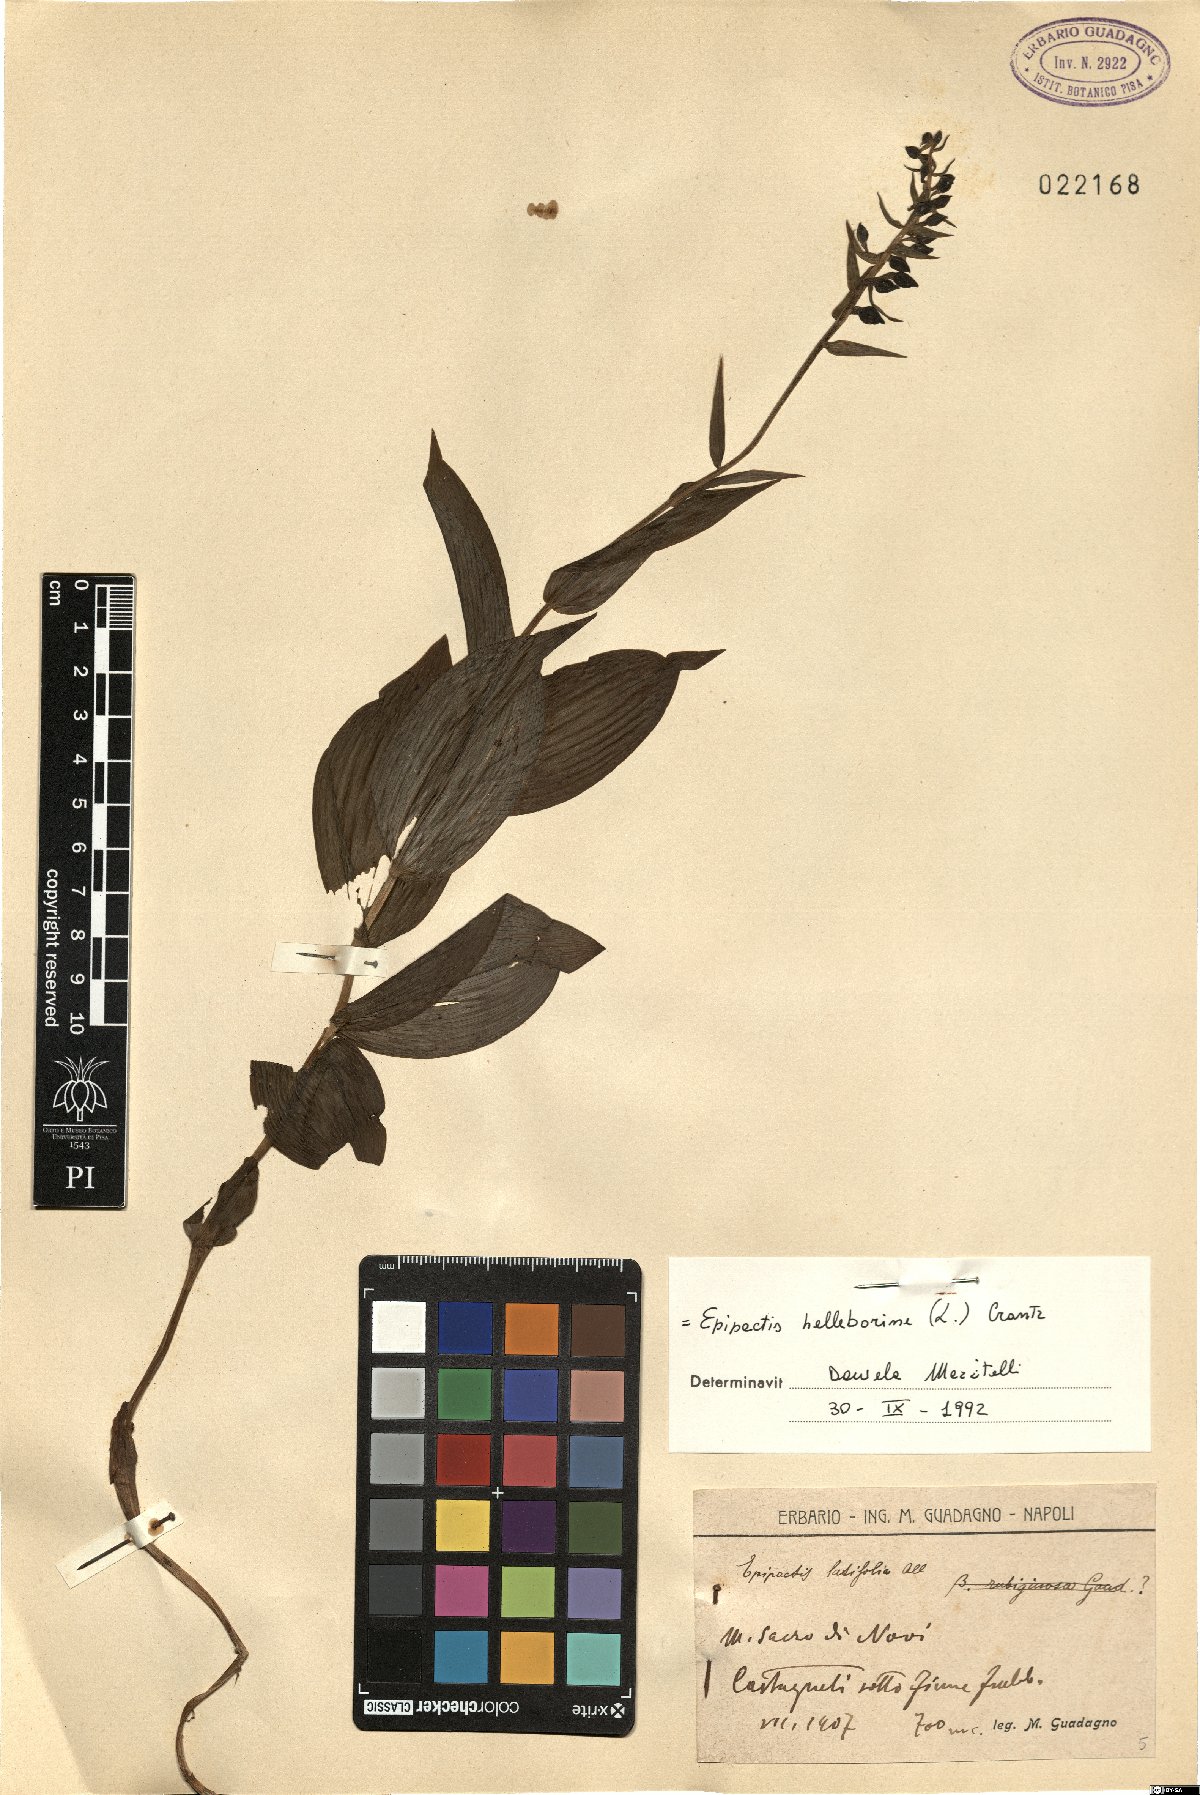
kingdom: Plantae
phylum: Tracheophyta
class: Liliopsida
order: Asparagales
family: Orchidaceae
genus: Epipactis
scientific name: Epipactis helleborine
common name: Broad-leaved helleborine
